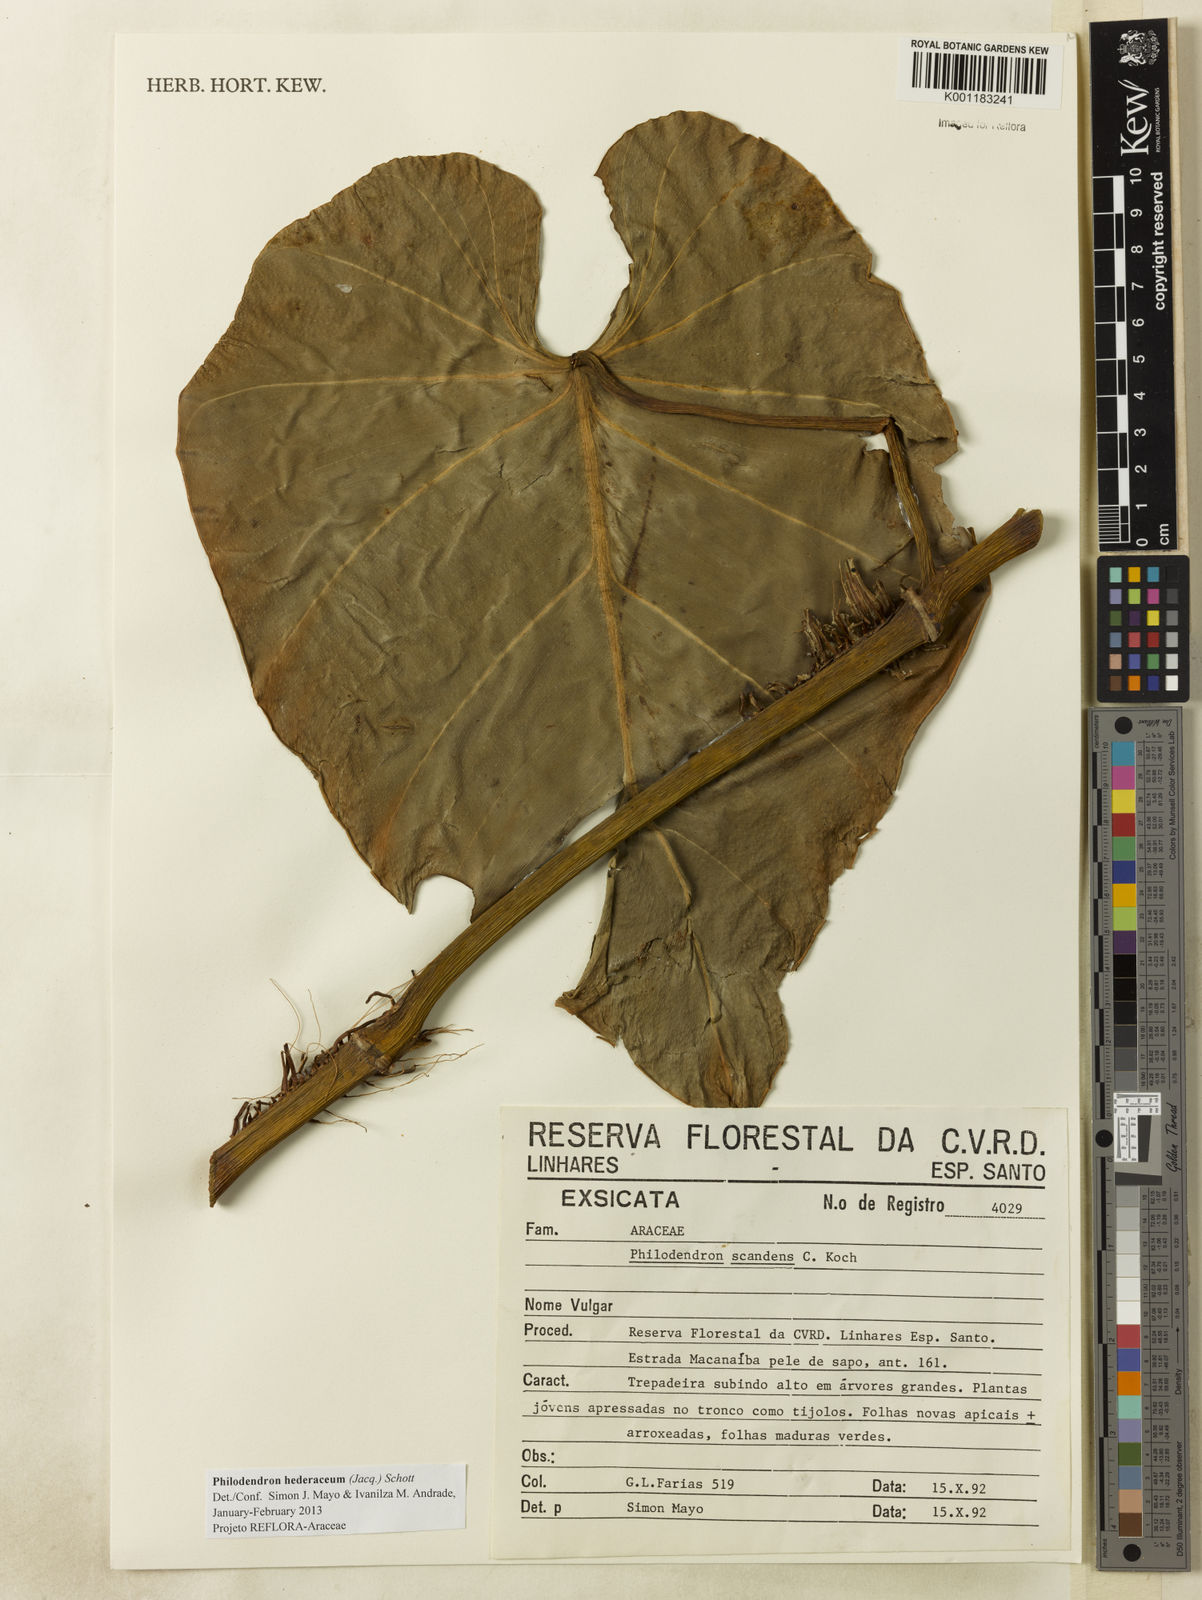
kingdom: Plantae
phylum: Tracheophyta
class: Liliopsida
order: Alismatales
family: Araceae
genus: Philodendron
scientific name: Philodendron hederaceum
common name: Vilevine
